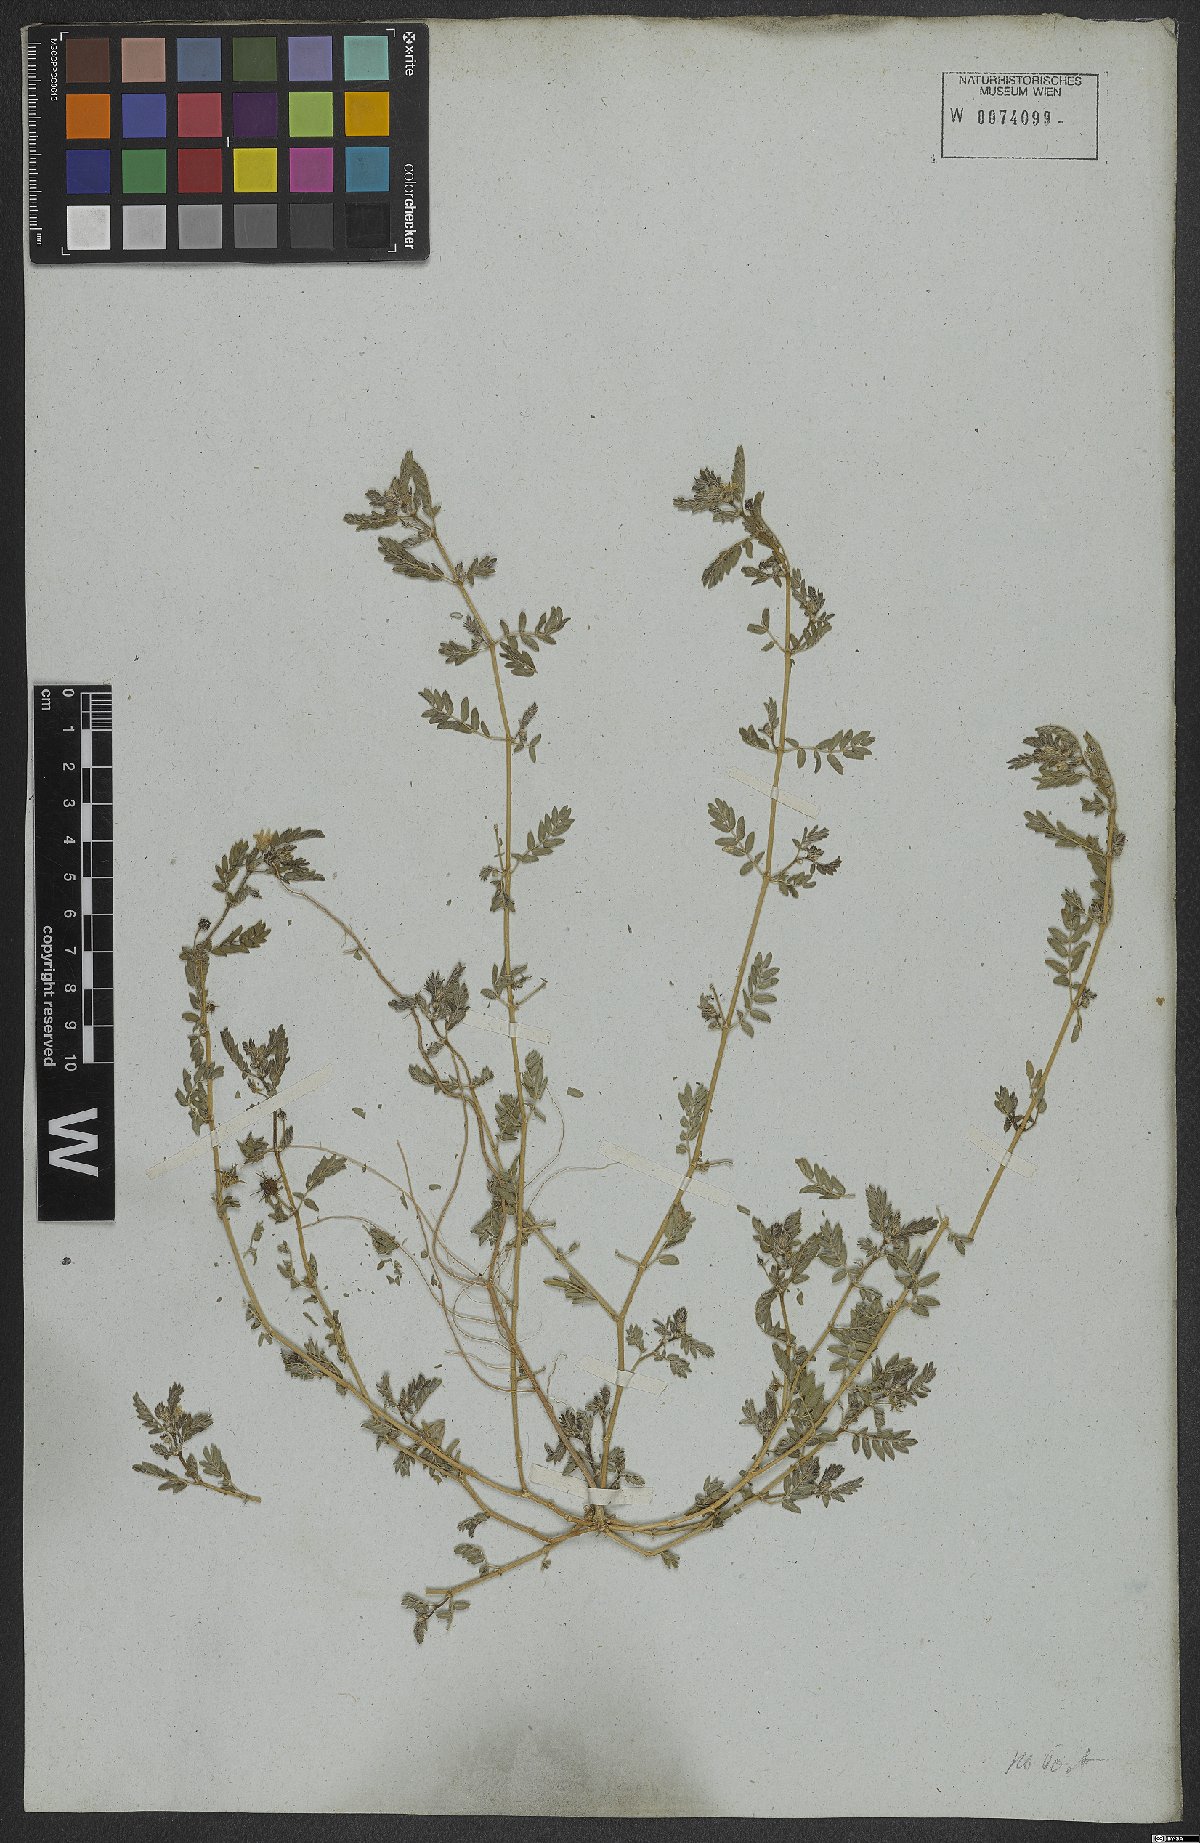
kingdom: Plantae
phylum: Tracheophyta
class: Magnoliopsida
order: Zygophyllales
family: Zygophyllaceae
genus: Tribulus
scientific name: Tribulus terrestris
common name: Puncturevine
